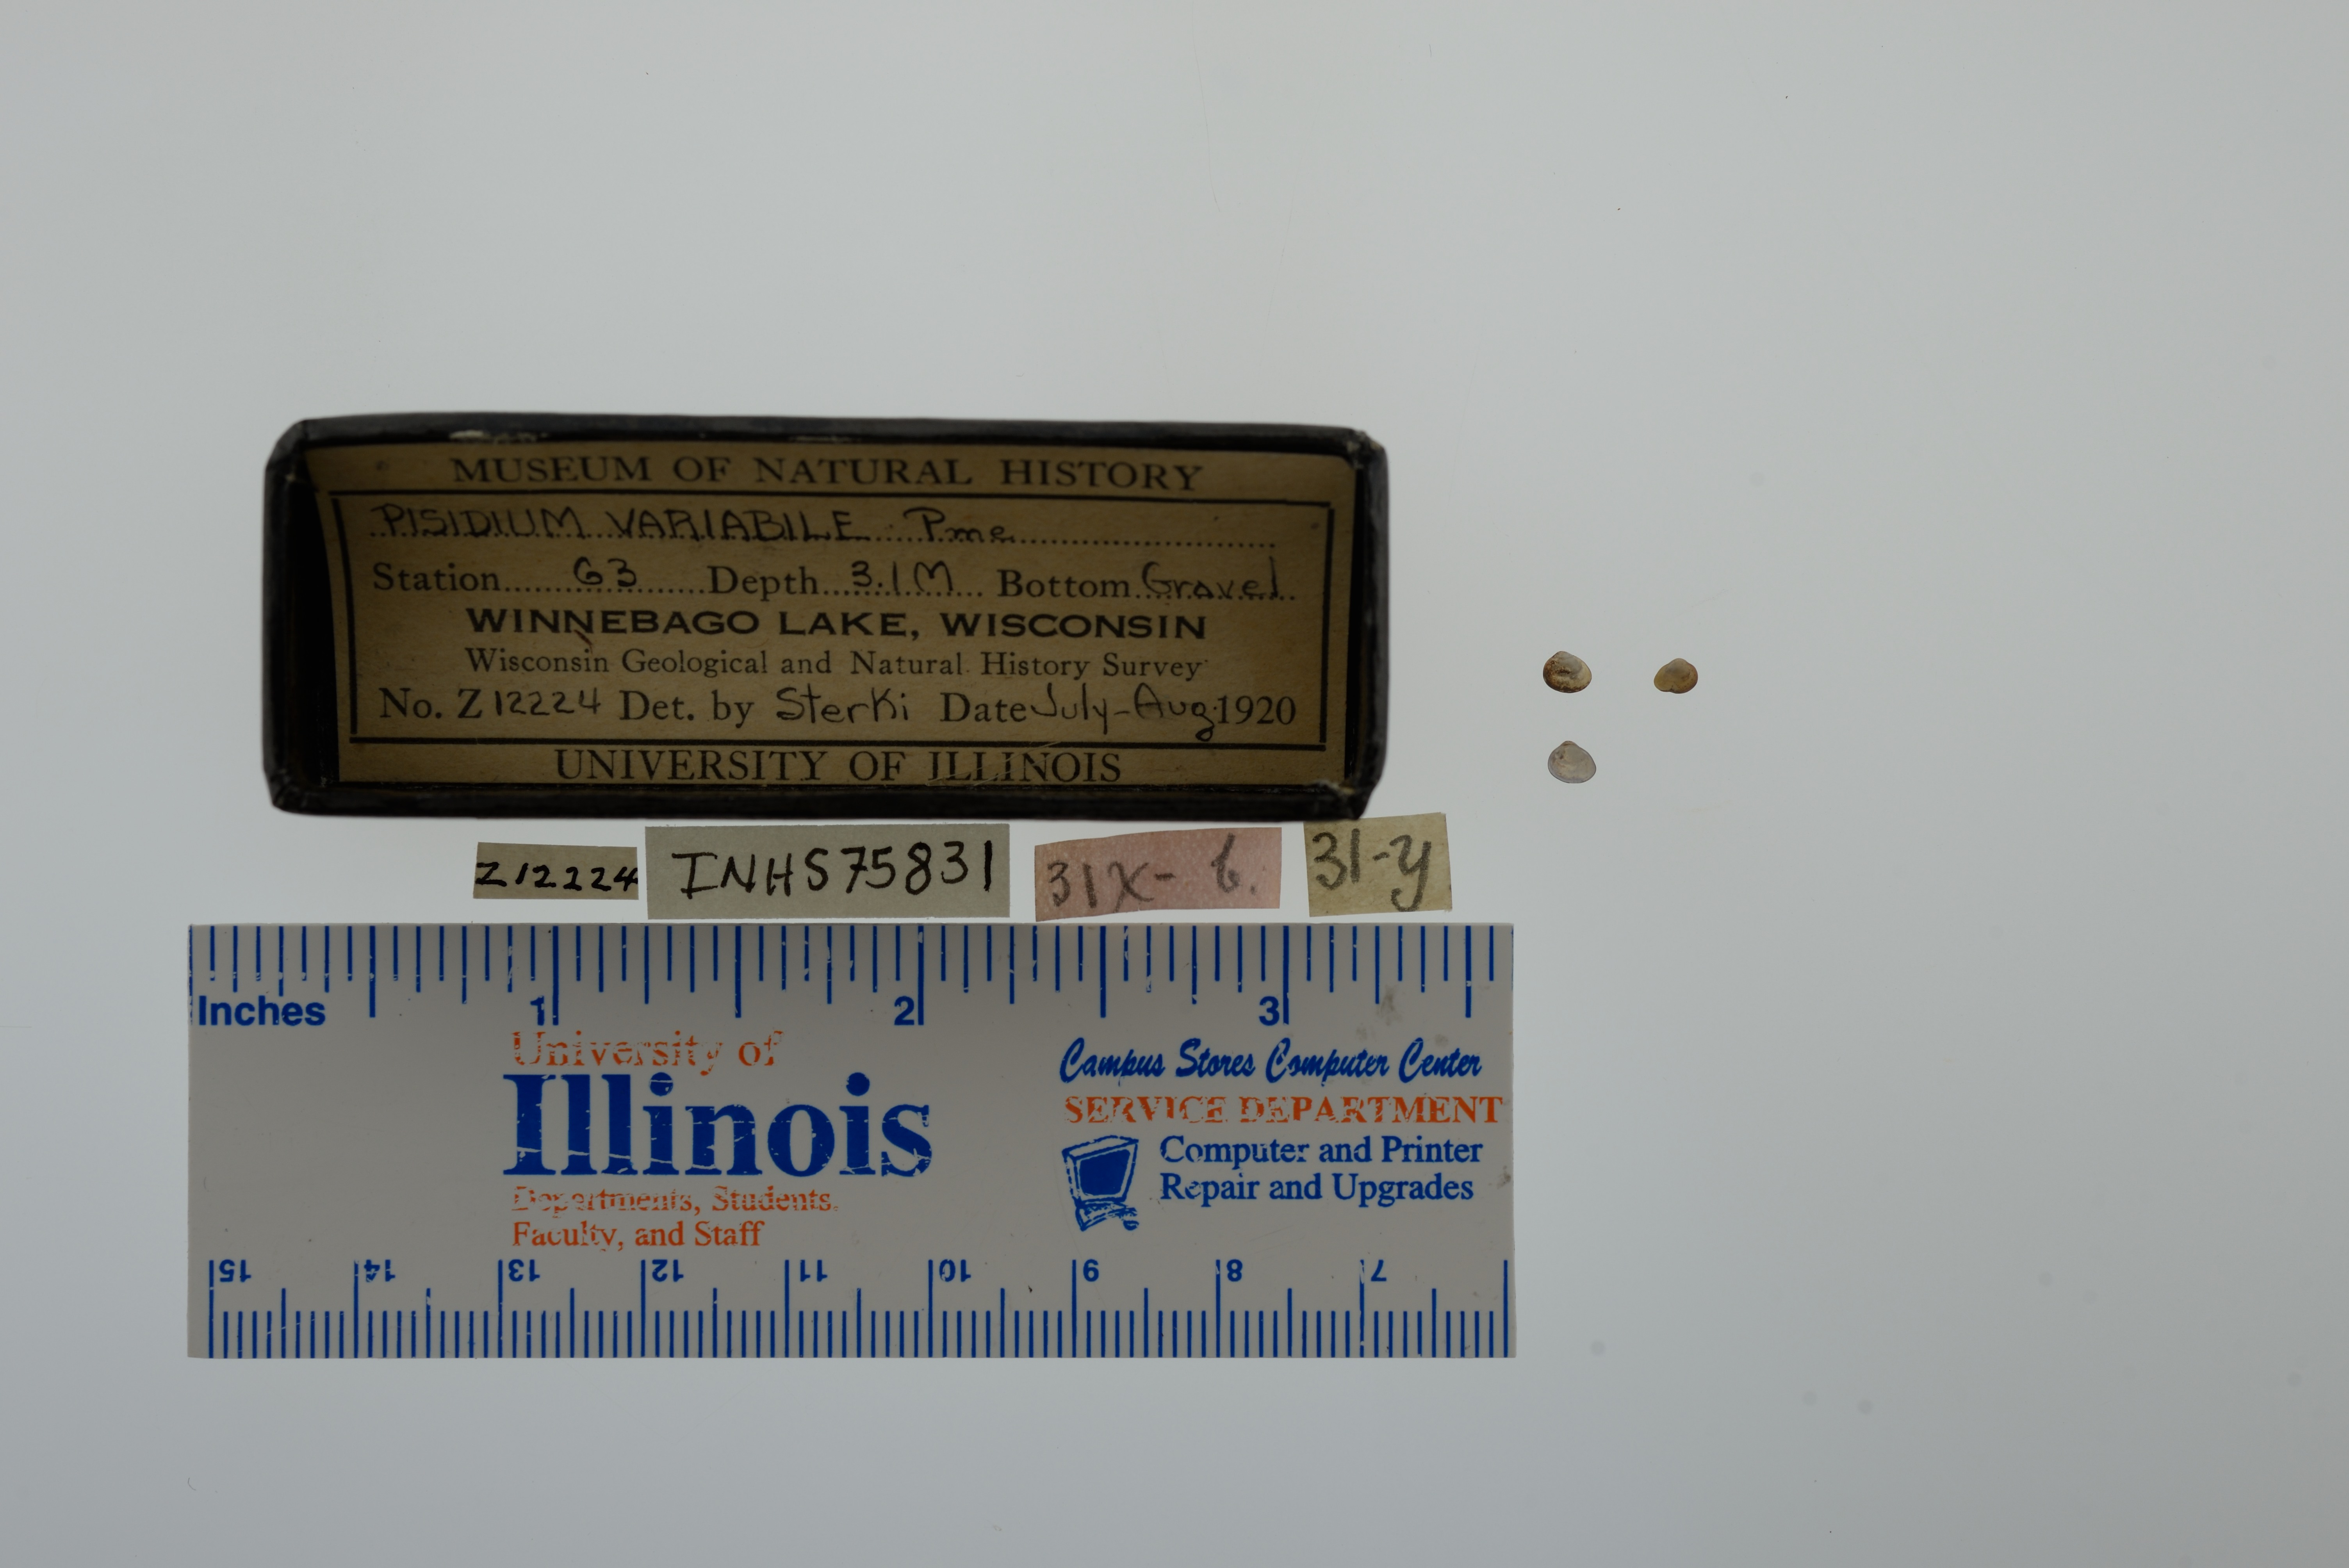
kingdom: Animalia
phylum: Mollusca
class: Bivalvia
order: Sphaeriida
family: Sphaeriidae
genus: Euglesa
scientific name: Euglesa variabilis
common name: Triangular peaclam
